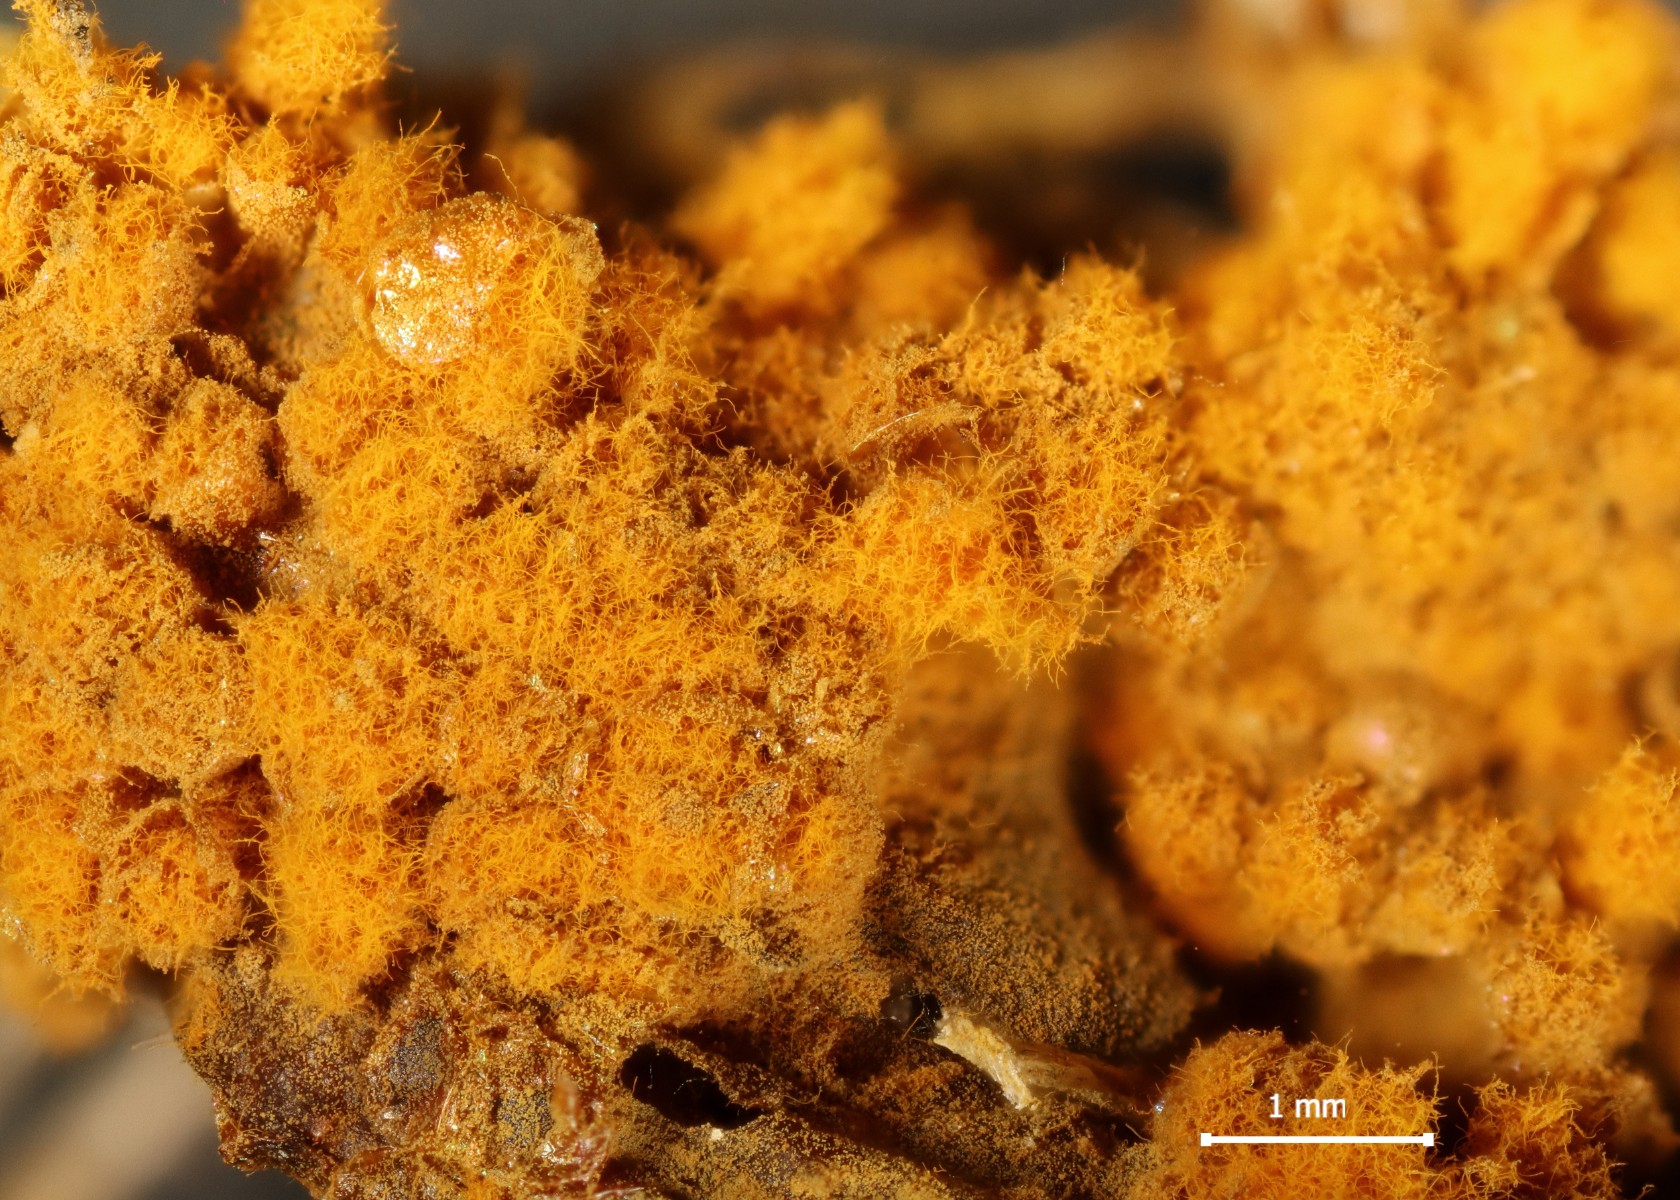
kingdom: Protozoa
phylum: Mycetozoa
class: Myxomycetes
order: Trichiales
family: Trichiaceae
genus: Trichia
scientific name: Trichia scabra
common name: tæppe-hårbold
